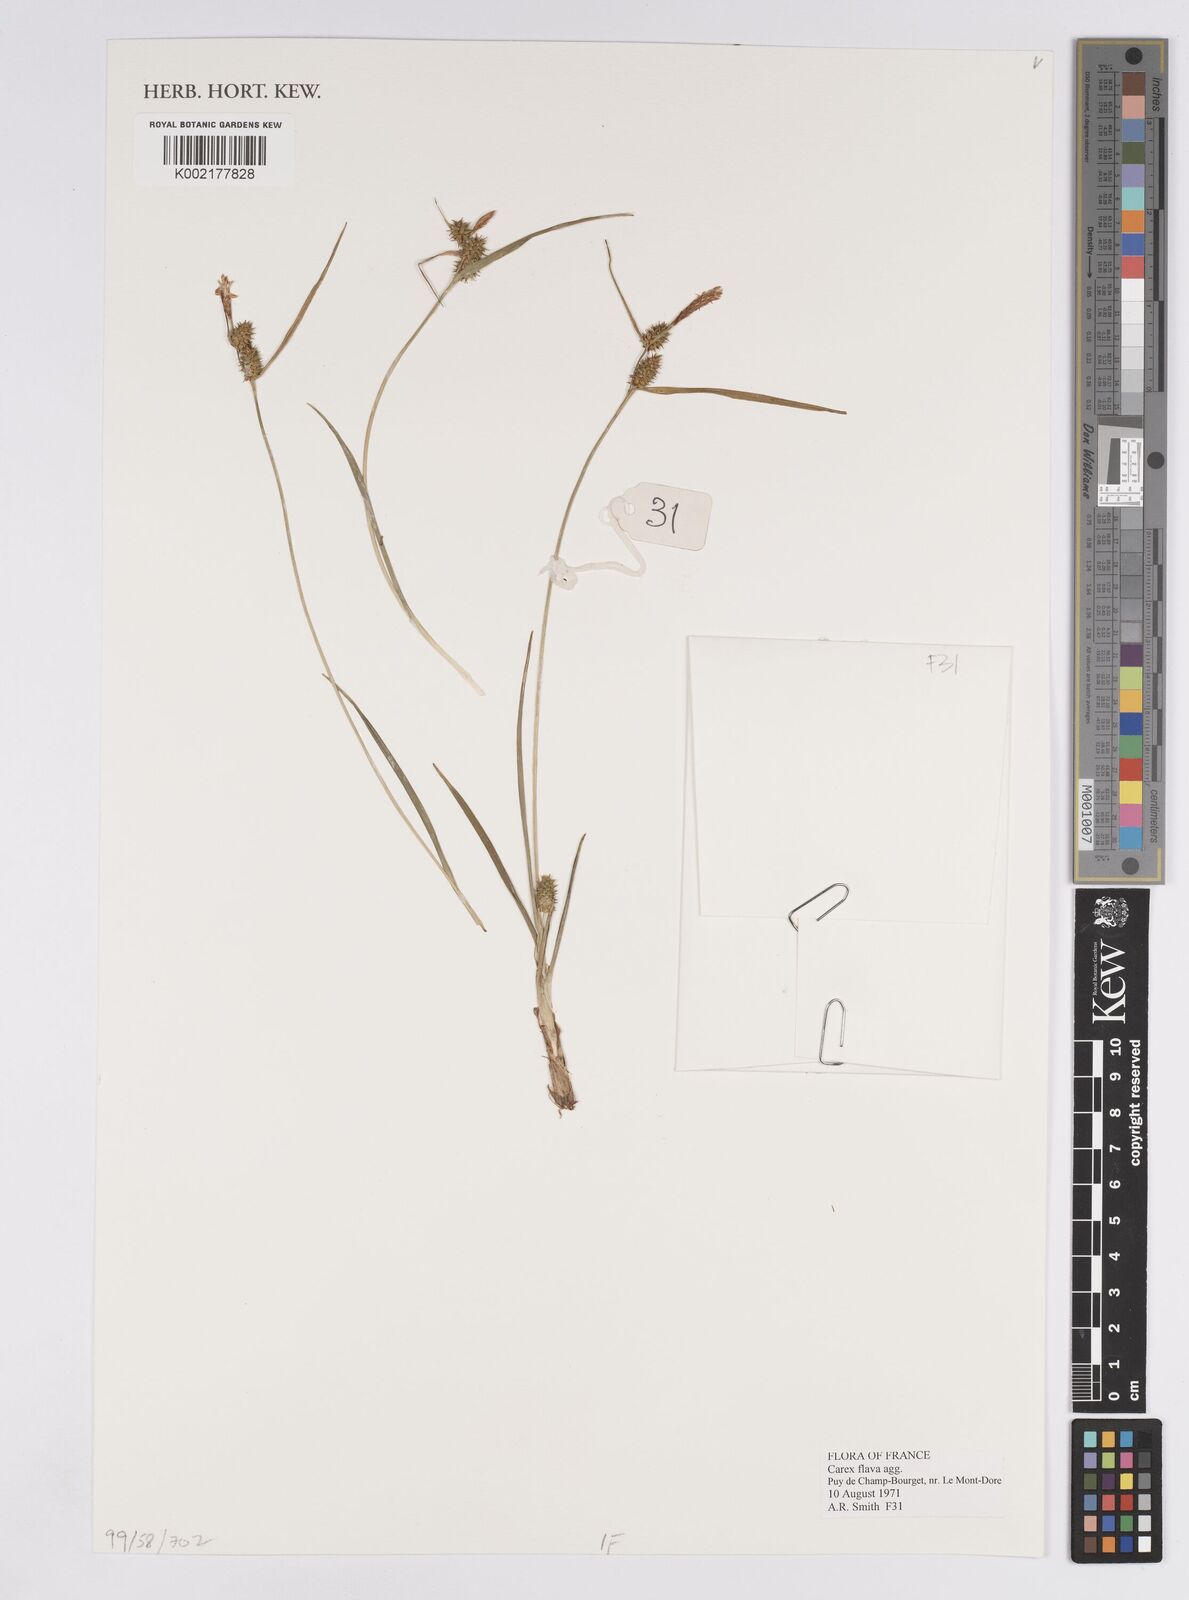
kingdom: Plantae
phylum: Tracheophyta
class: Liliopsida
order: Poales
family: Cyperaceae
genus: Carex
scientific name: Carex flava
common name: Large yellow-sedge
